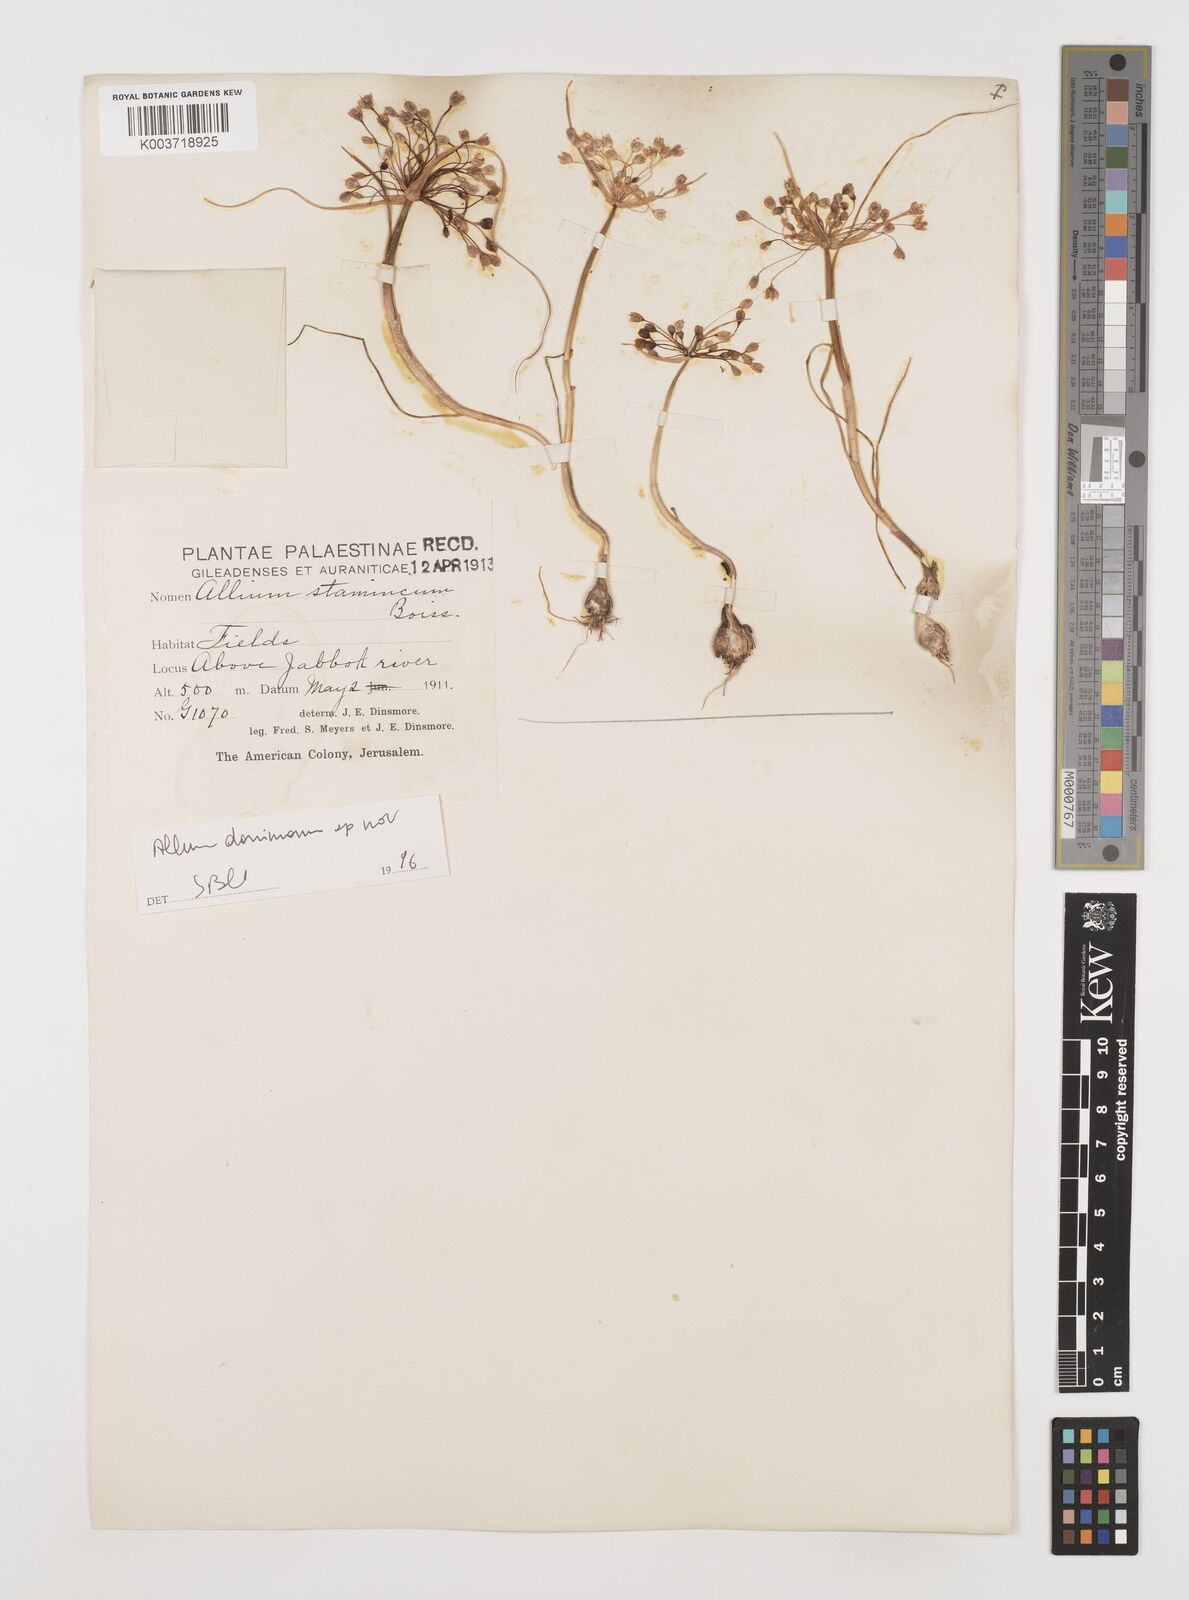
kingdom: Plantae
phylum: Tracheophyta
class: Liliopsida
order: Asparagales
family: Amaryllidaceae
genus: Allium
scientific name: Allium stamineum
